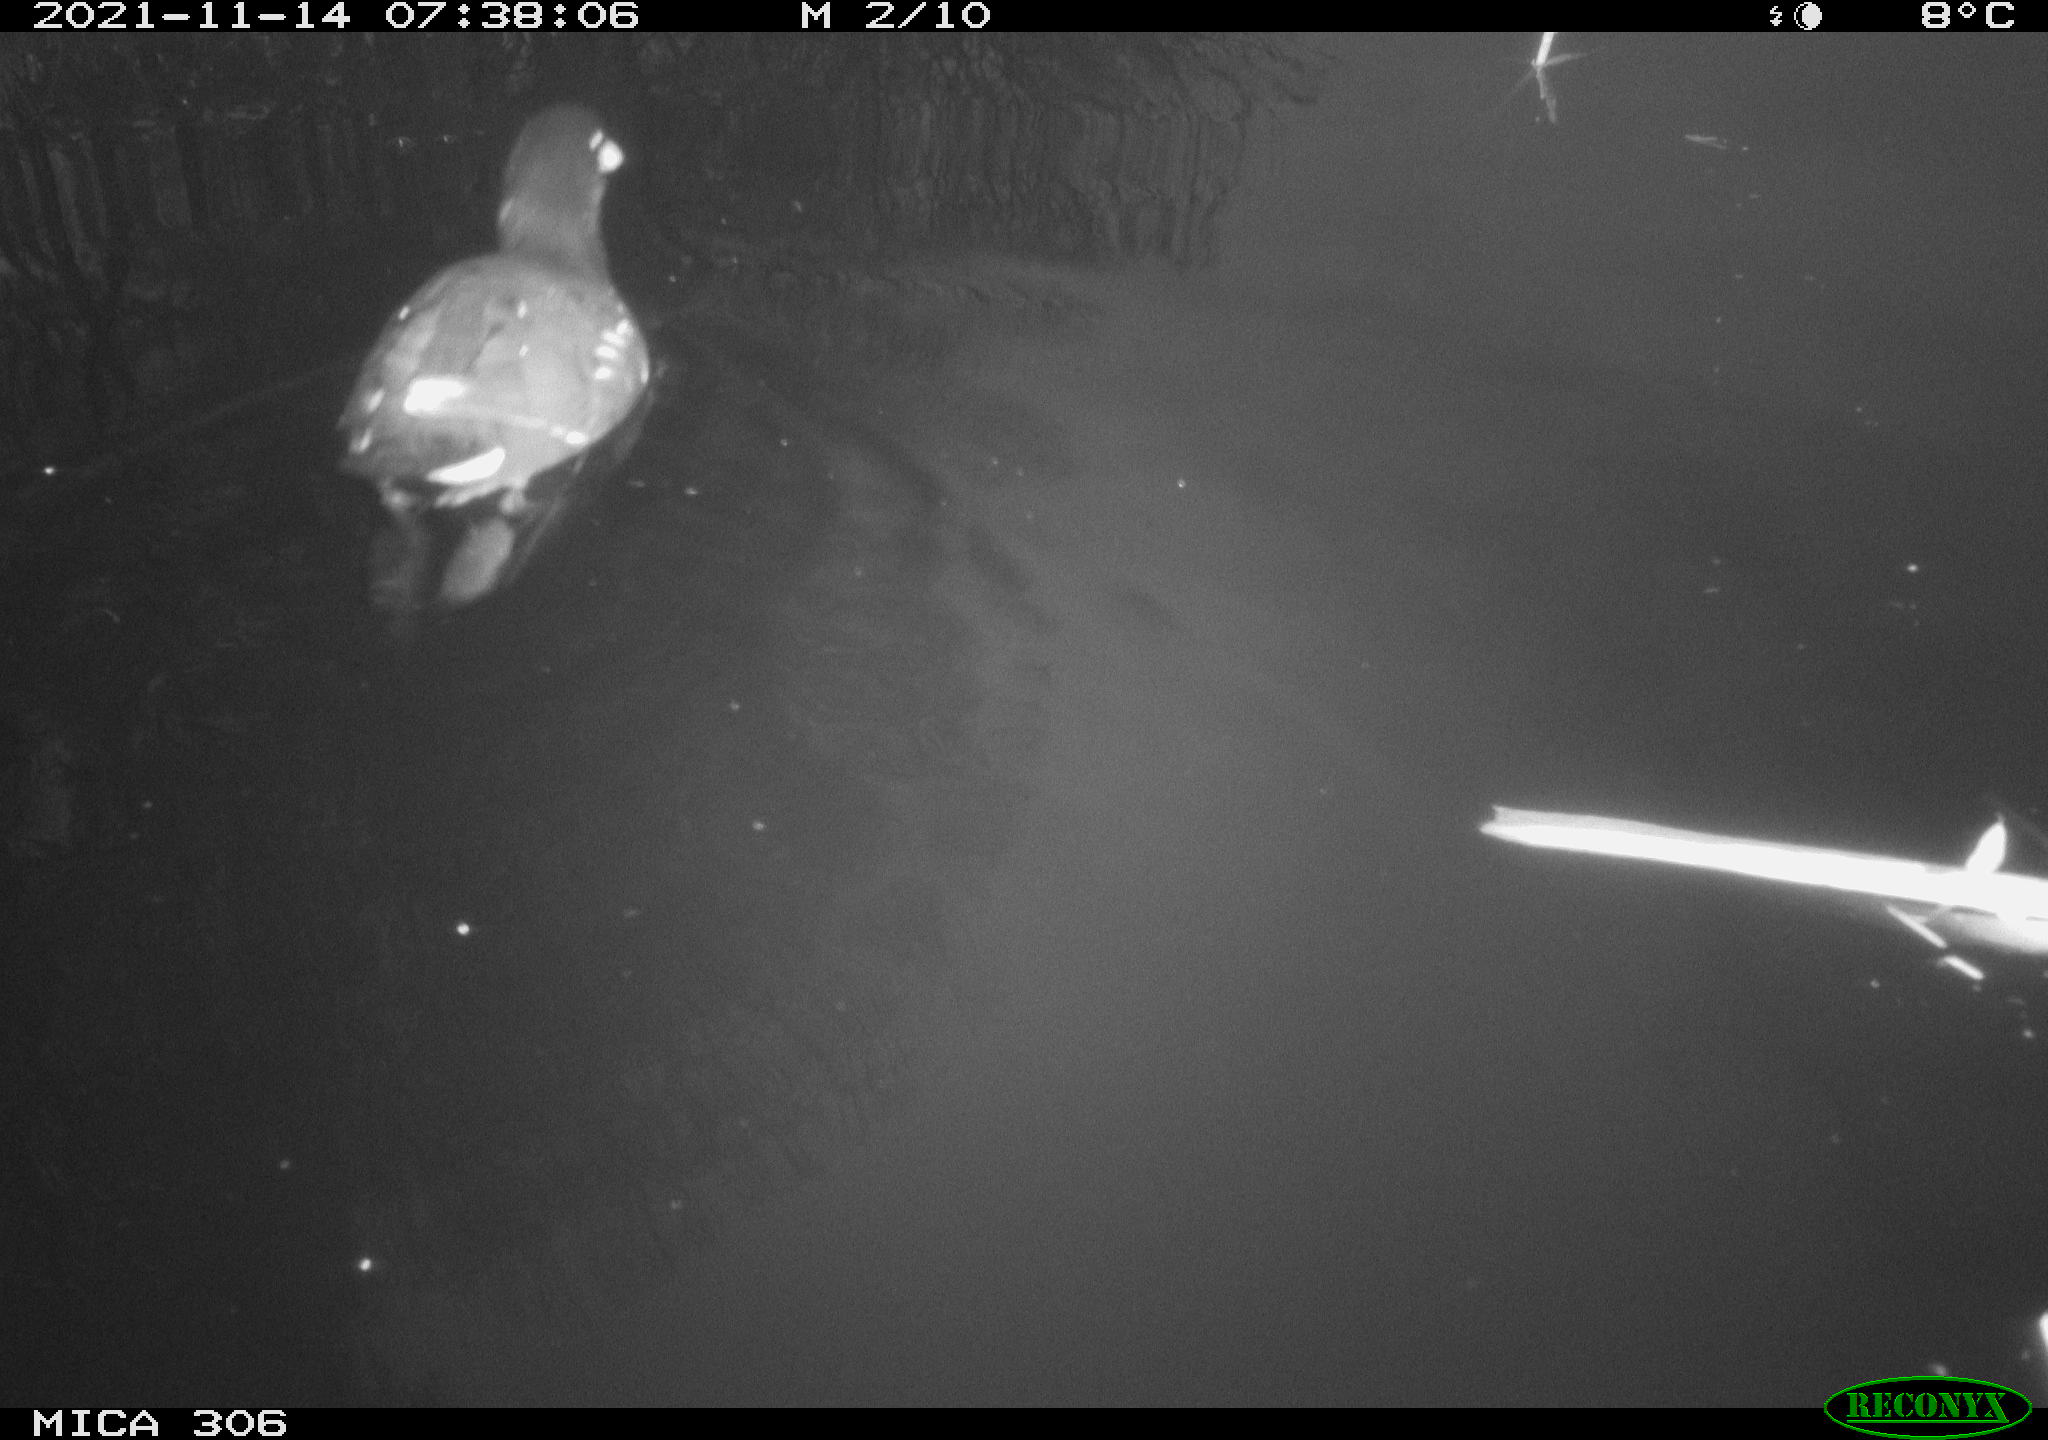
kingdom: Animalia
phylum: Chordata
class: Aves
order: Gruiformes
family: Rallidae
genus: Fulica
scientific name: Fulica atra
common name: Eurasian coot
